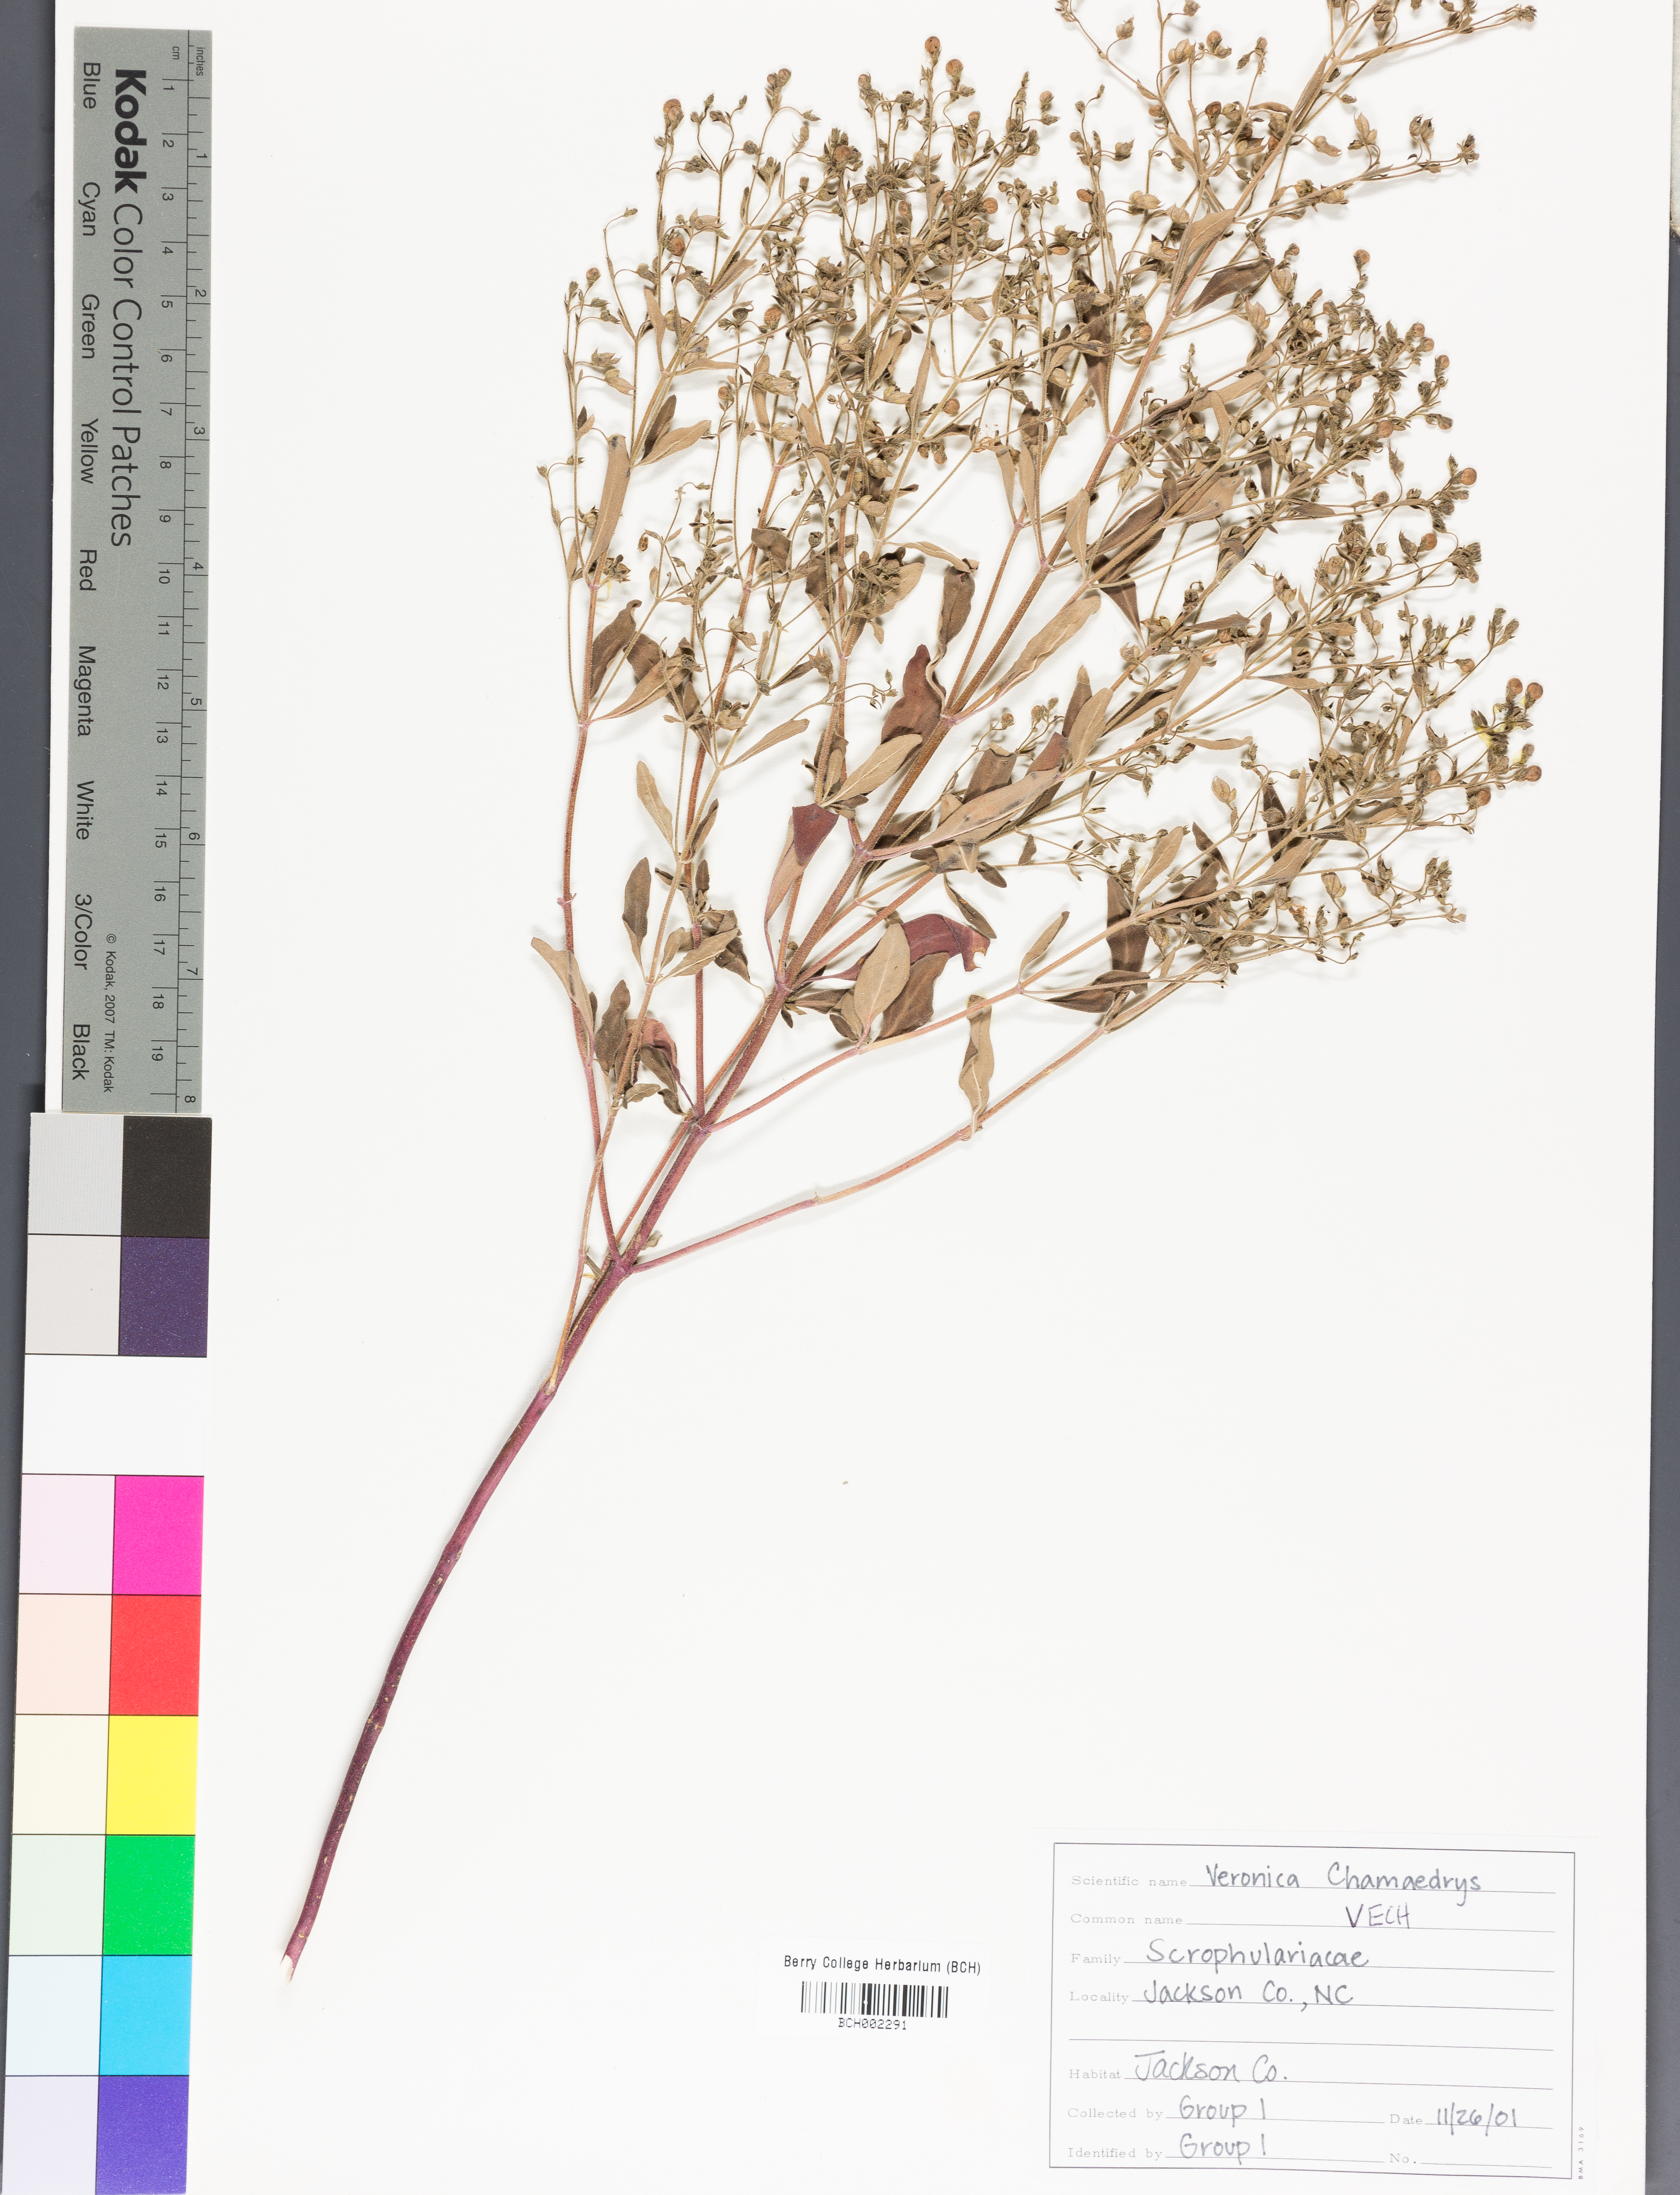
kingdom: Plantae
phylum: Tracheophyta
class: Magnoliopsida
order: Lamiales
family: Plantaginaceae
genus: Veronica
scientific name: Veronica chamaedrys
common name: Germander speedwell
